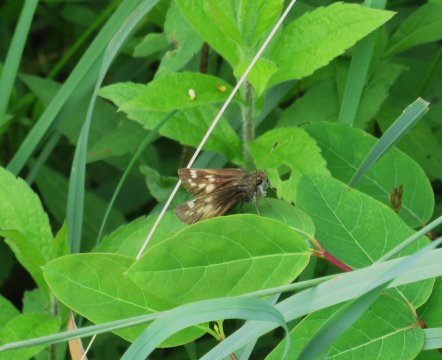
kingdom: Animalia
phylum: Arthropoda
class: Insecta
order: Lepidoptera
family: Hesperiidae
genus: Lon
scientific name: Lon hobomok
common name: Hobomok Skipper
